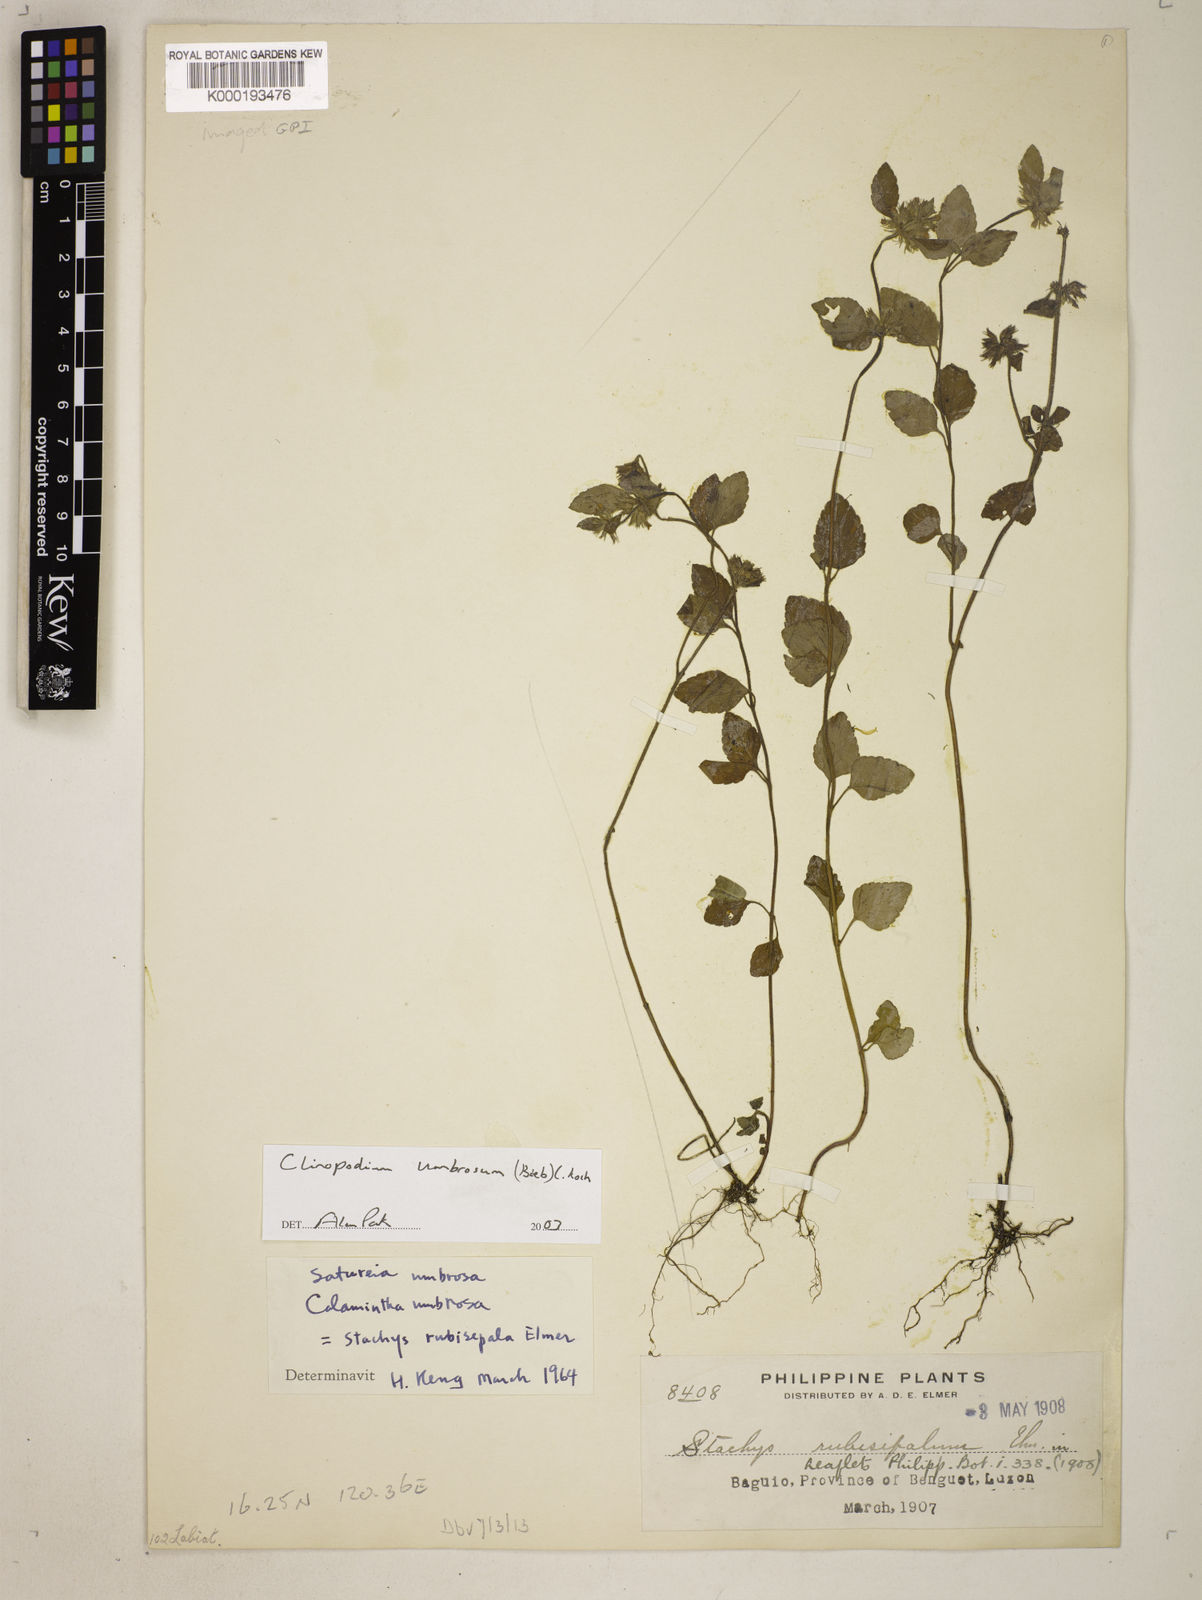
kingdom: Plantae
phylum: Tracheophyta
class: Magnoliopsida
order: Lamiales
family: Lamiaceae
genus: Clinopodium
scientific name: Clinopodium
